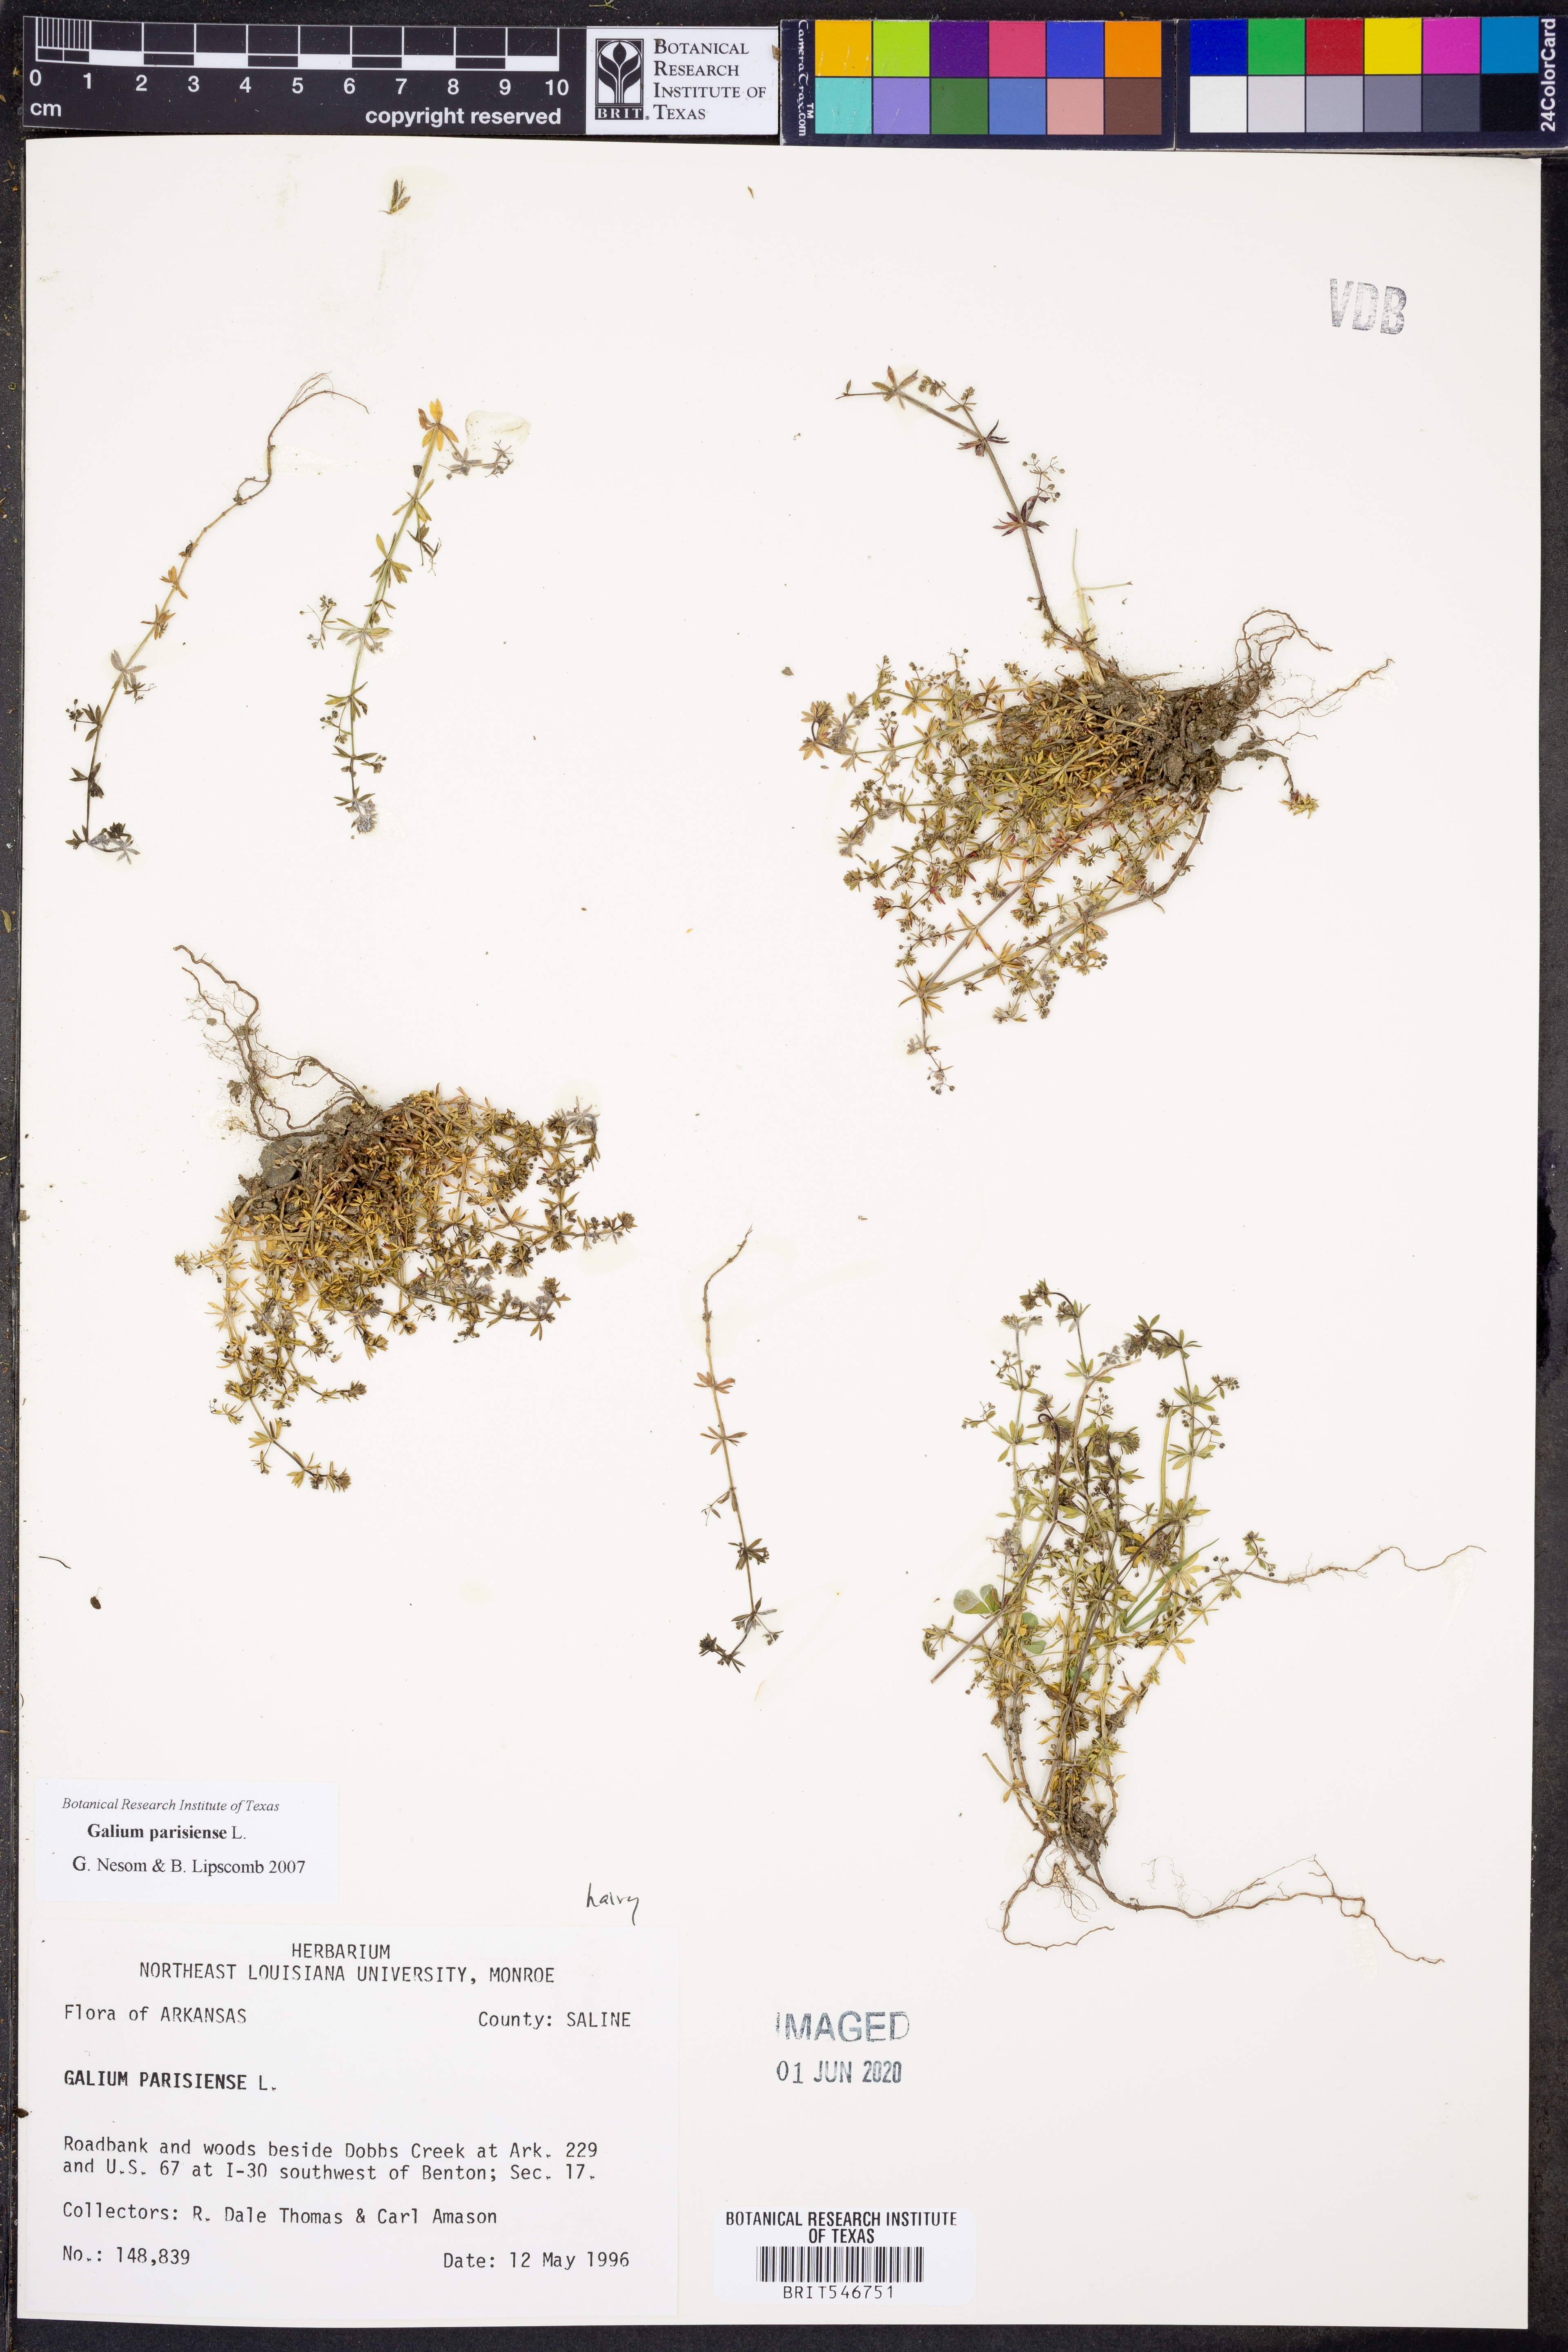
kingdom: Plantae
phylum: Tracheophyta
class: Magnoliopsida
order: Gentianales
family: Rubiaceae
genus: Galium
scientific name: Galium parisiense
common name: Wall bedstraw
